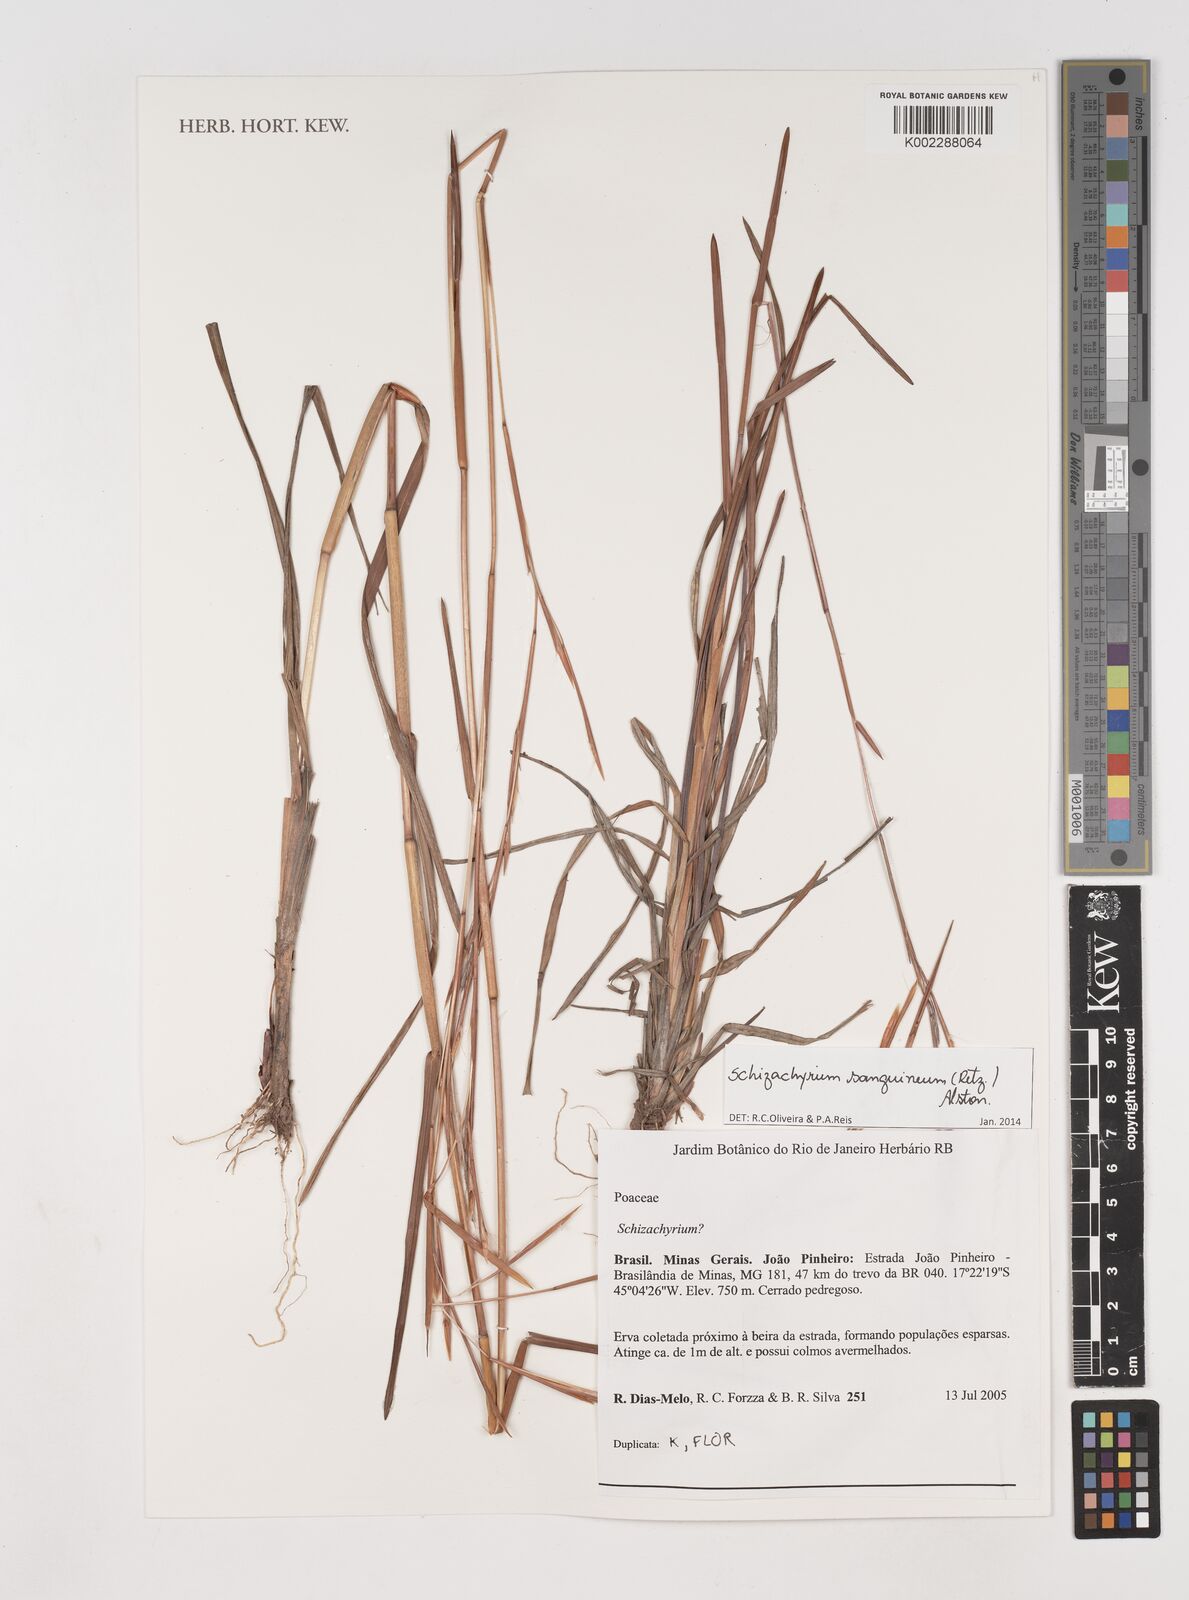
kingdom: Plantae
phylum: Tracheophyta
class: Liliopsida
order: Poales
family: Poaceae
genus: Schizachyrium
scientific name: Schizachyrium sanguineum
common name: Crimson bluestem
